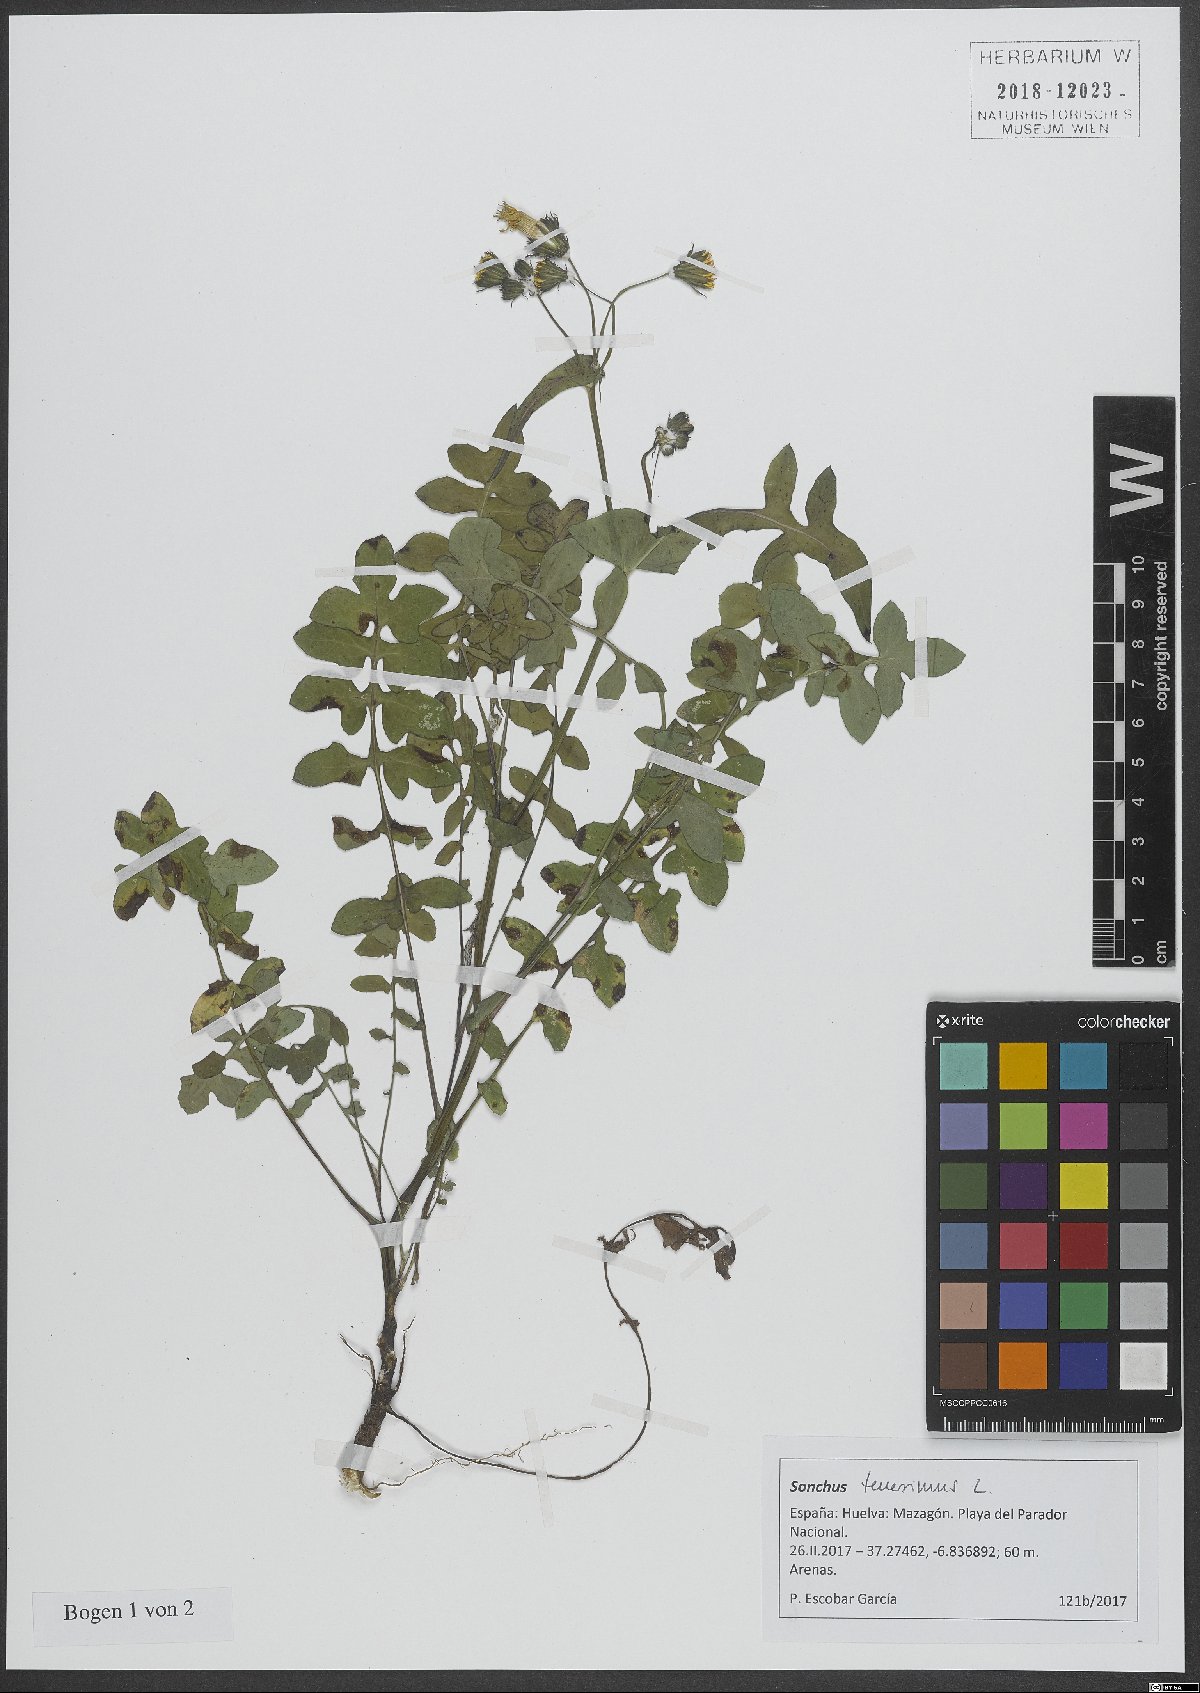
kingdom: Plantae
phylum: Tracheophyta
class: Magnoliopsida
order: Asterales
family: Asteraceae
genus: Sonchus
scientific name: Sonchus tenerrimus
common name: Clammy sowthistle
